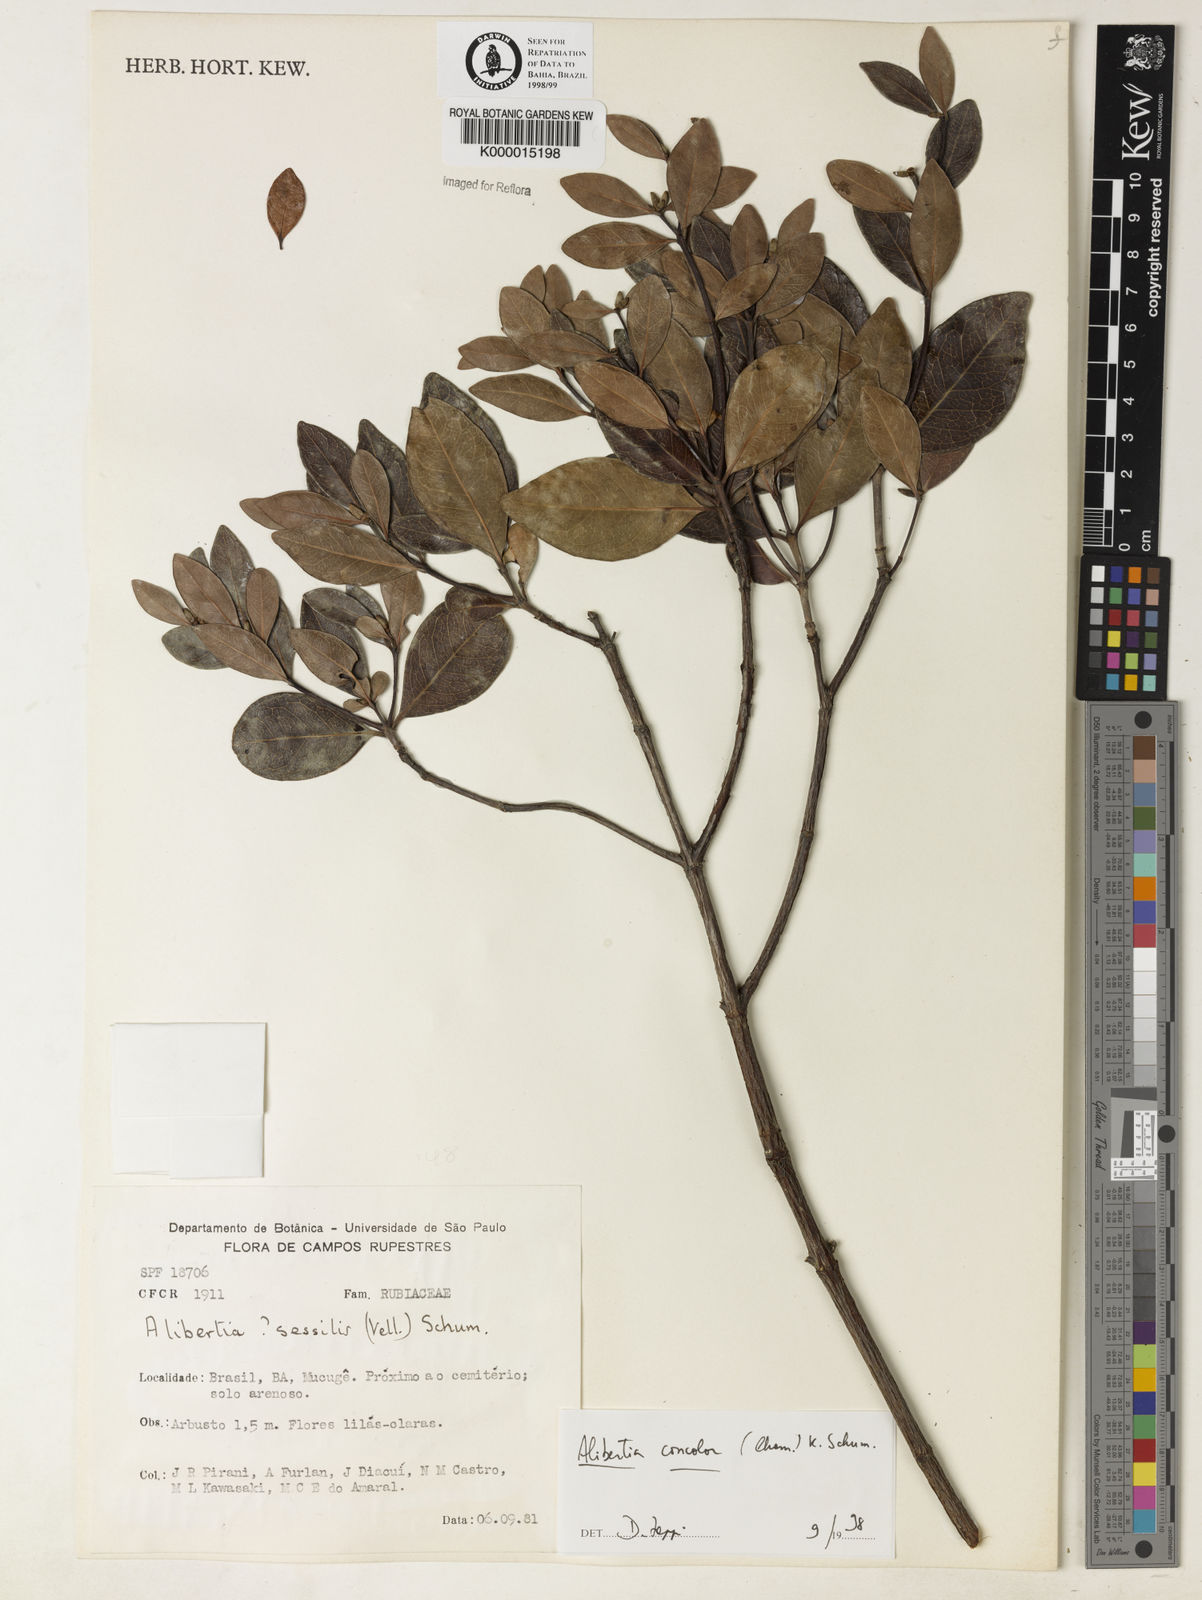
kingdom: Plantae
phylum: Tracheophyta
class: Magnoliopsida
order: Gentianales
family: Rubiaceae
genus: Cordiera
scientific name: Cordiera concolor
